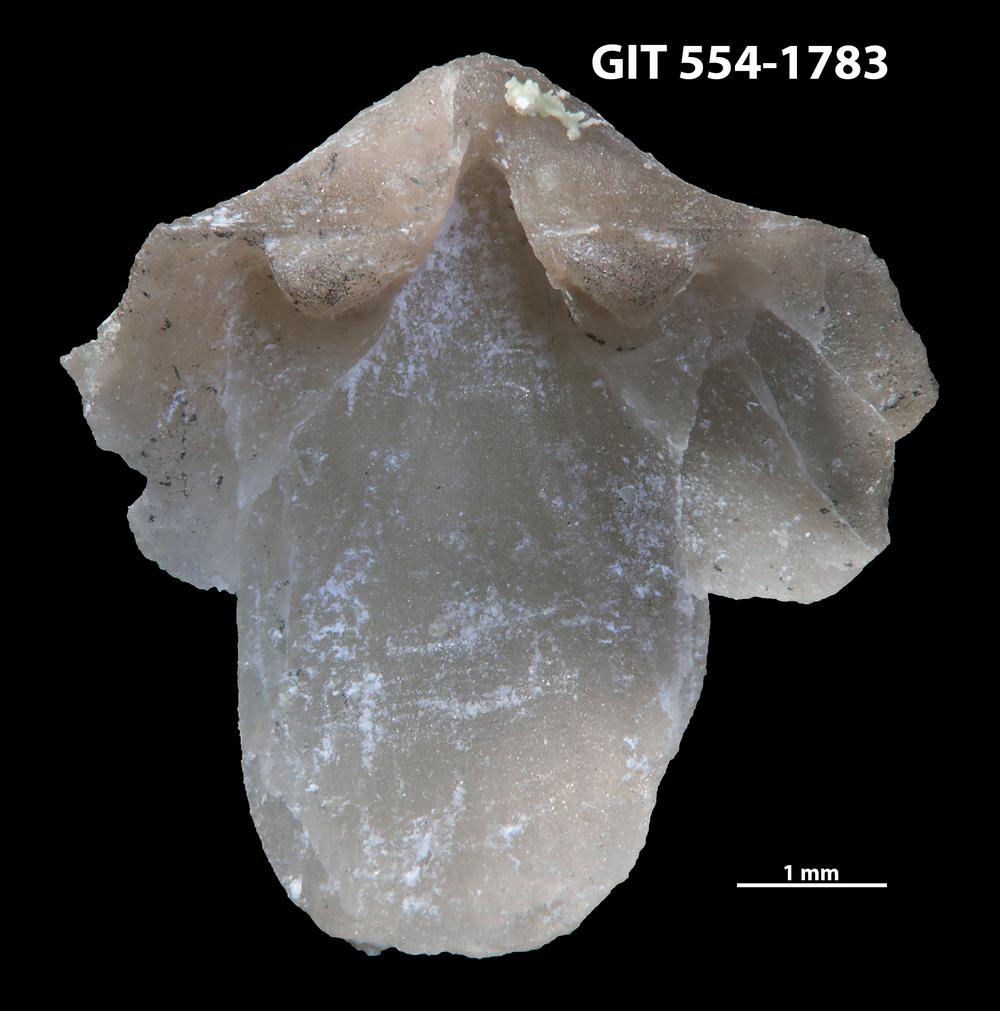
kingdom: Animalia
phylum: Brachiopoda
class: Rhynchonellata
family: Dalmanellidae
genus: Dalmanella
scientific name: Dalmanella cyclica
